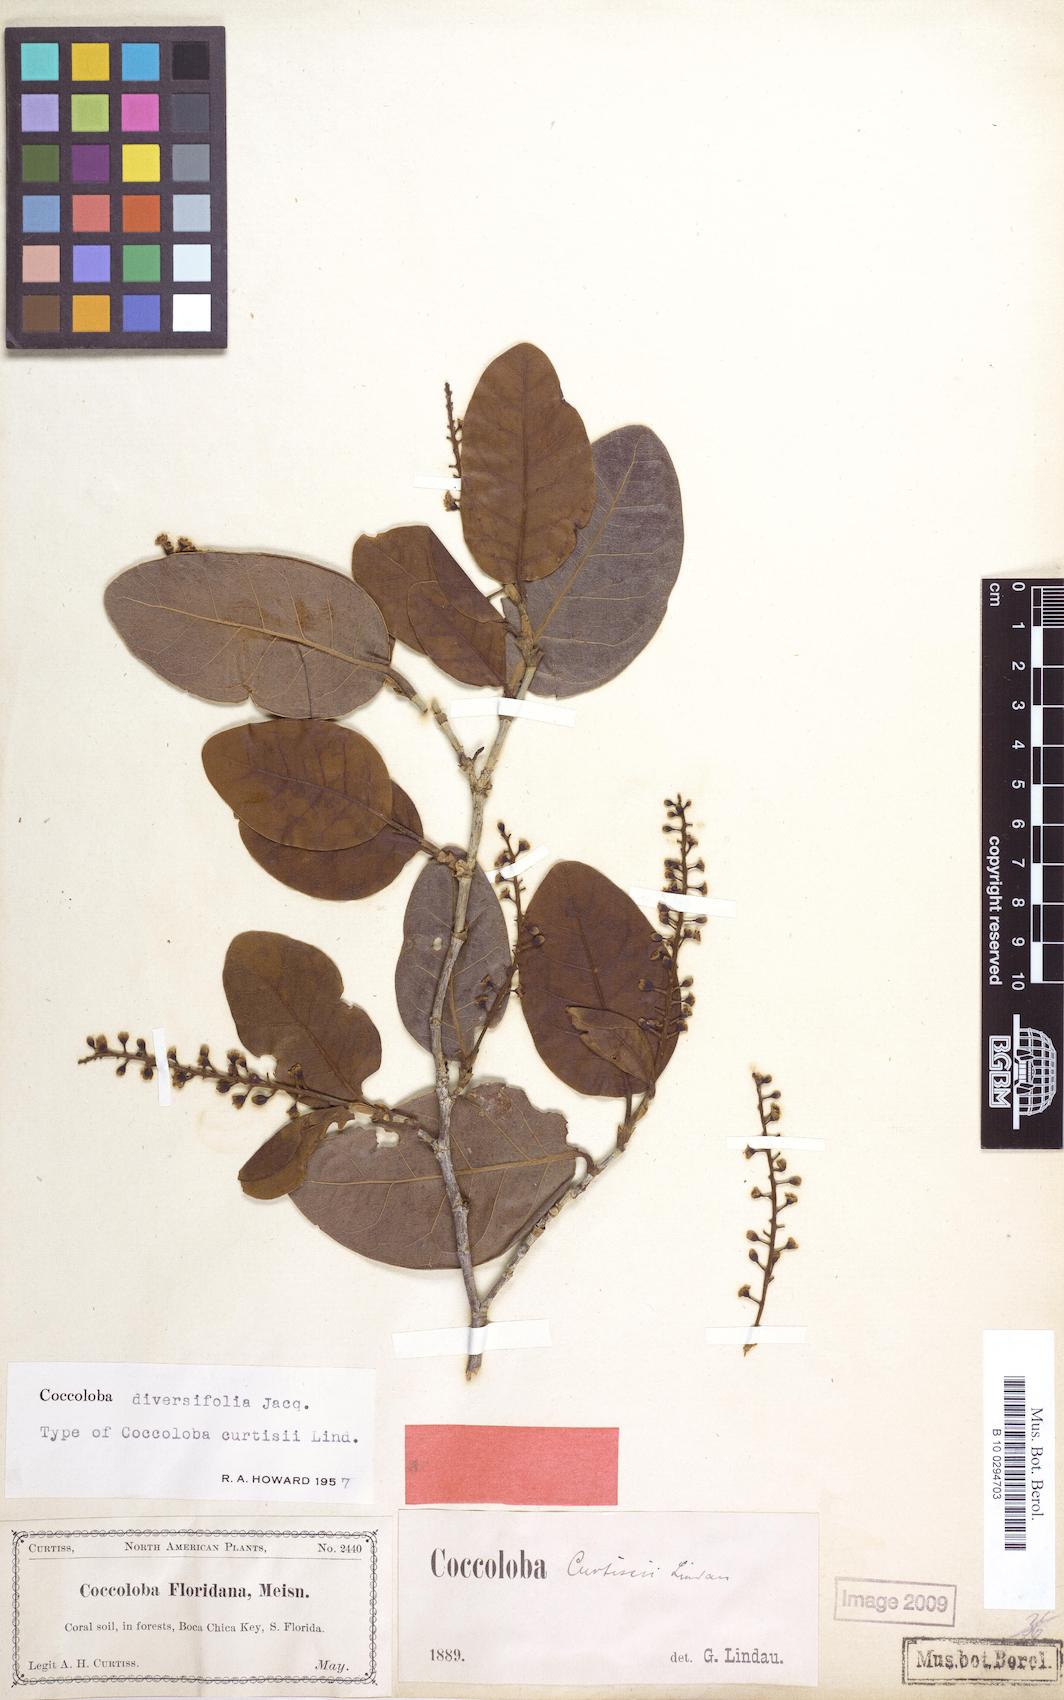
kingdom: Plantae
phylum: Tracheophyta
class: Magnoliopsida
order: Caryophyllales
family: Polygonaceae
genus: Coccoloba
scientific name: Coccoloba diversifolia
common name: Pigeon-plum
